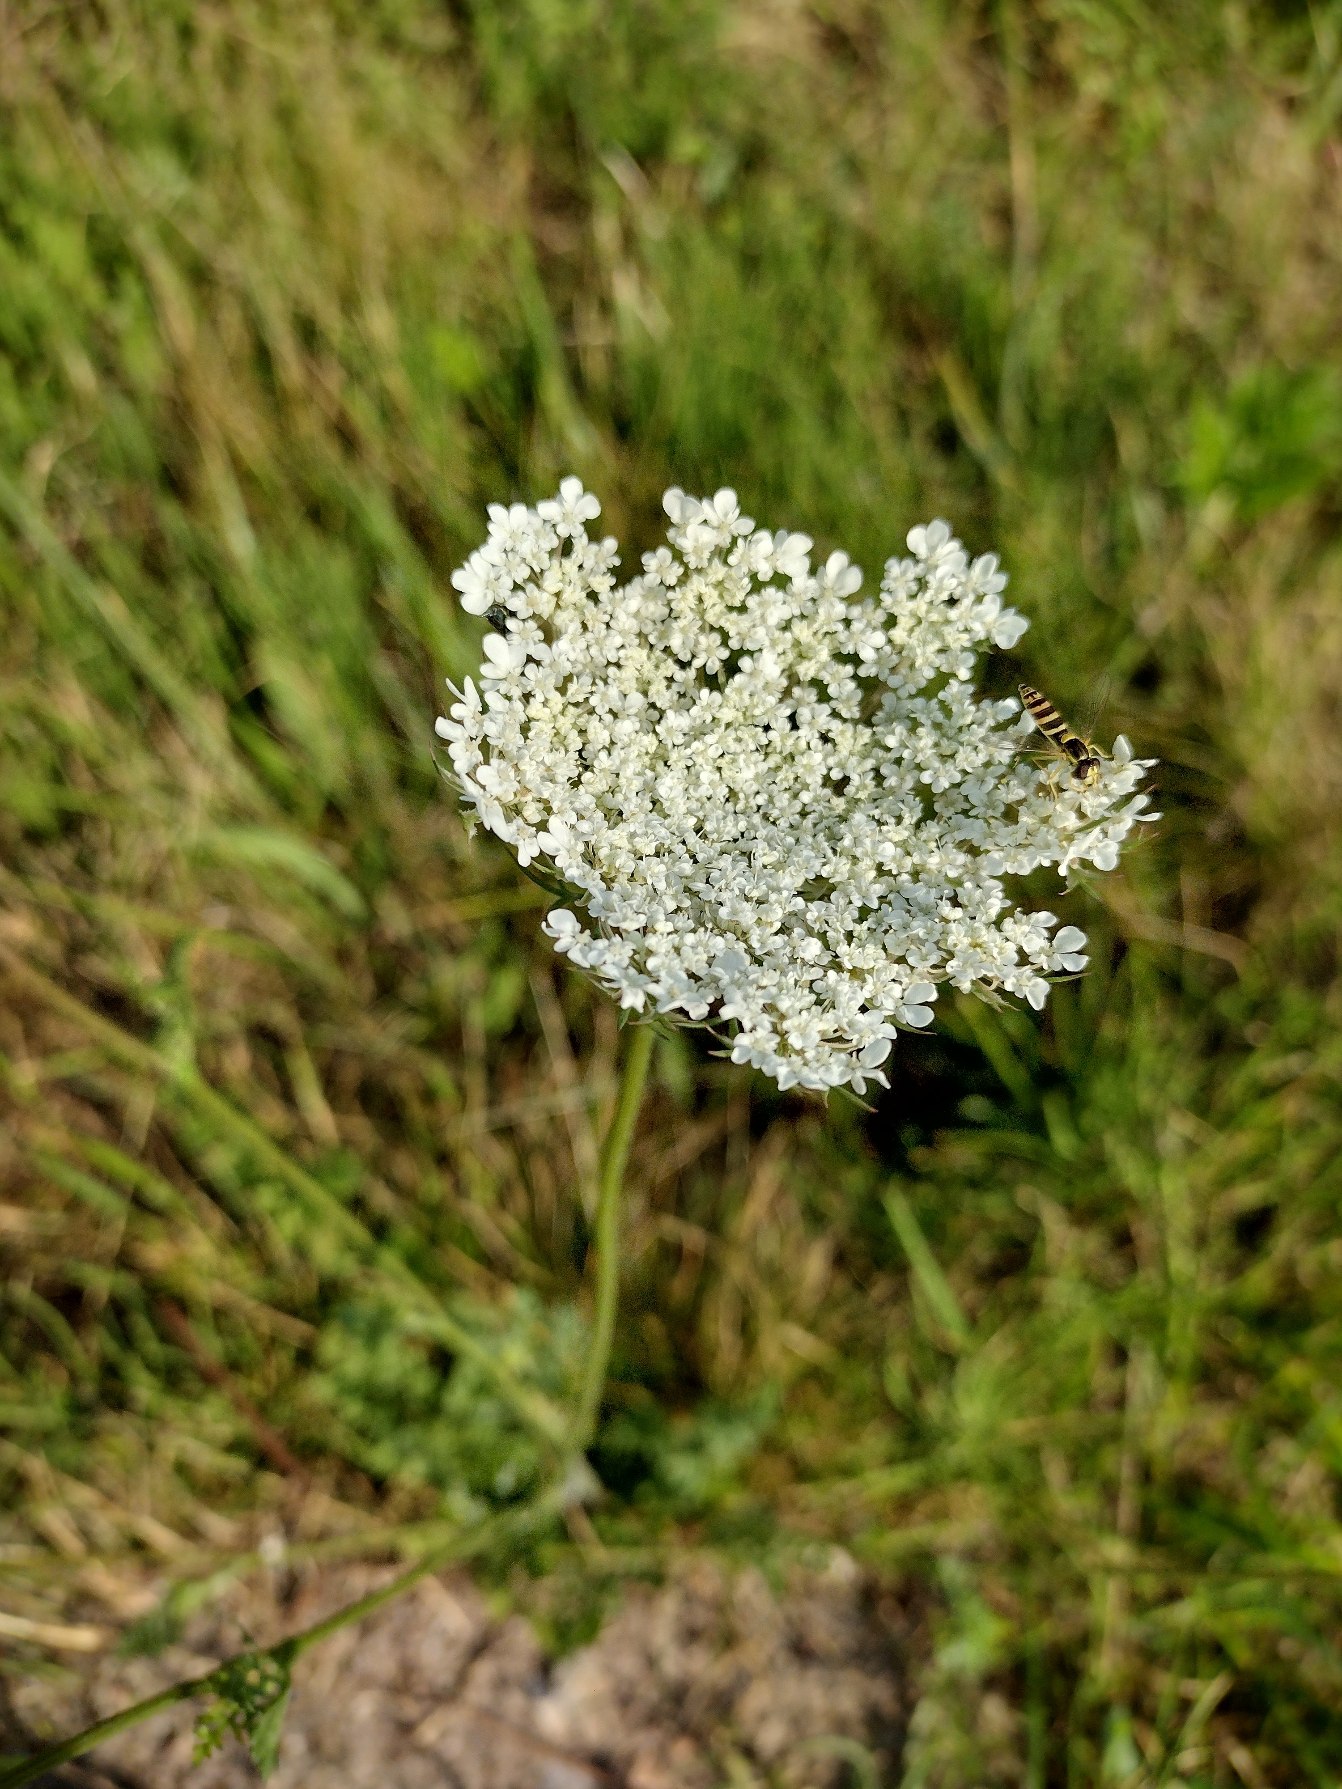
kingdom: Plantae
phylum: Tracheophyta
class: Magnoliopsida
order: Apiales
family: Apiaceae
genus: Daucus
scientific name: Daucus carota
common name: Gulerod
